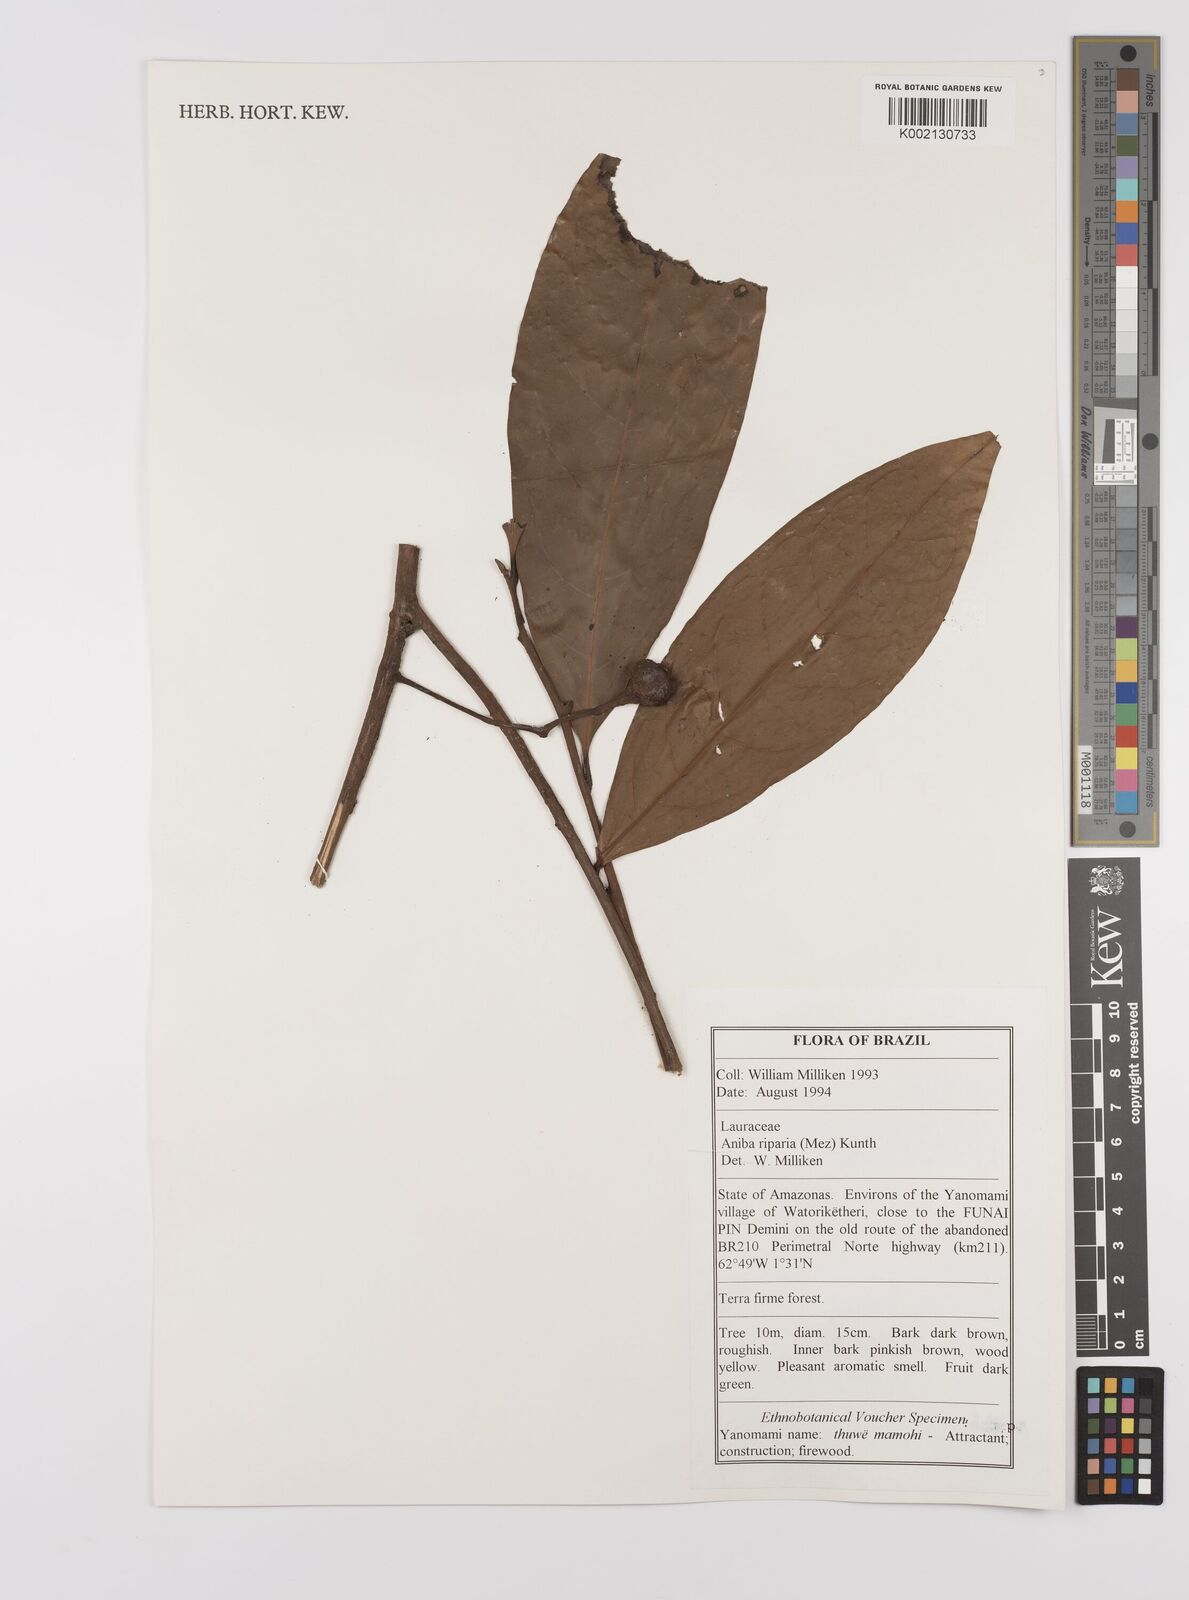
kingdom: Plantae
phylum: Tracheophyta
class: Magnoliopsida
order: Laurales
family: Lauraceae
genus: Aniba
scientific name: Aniba riparia
